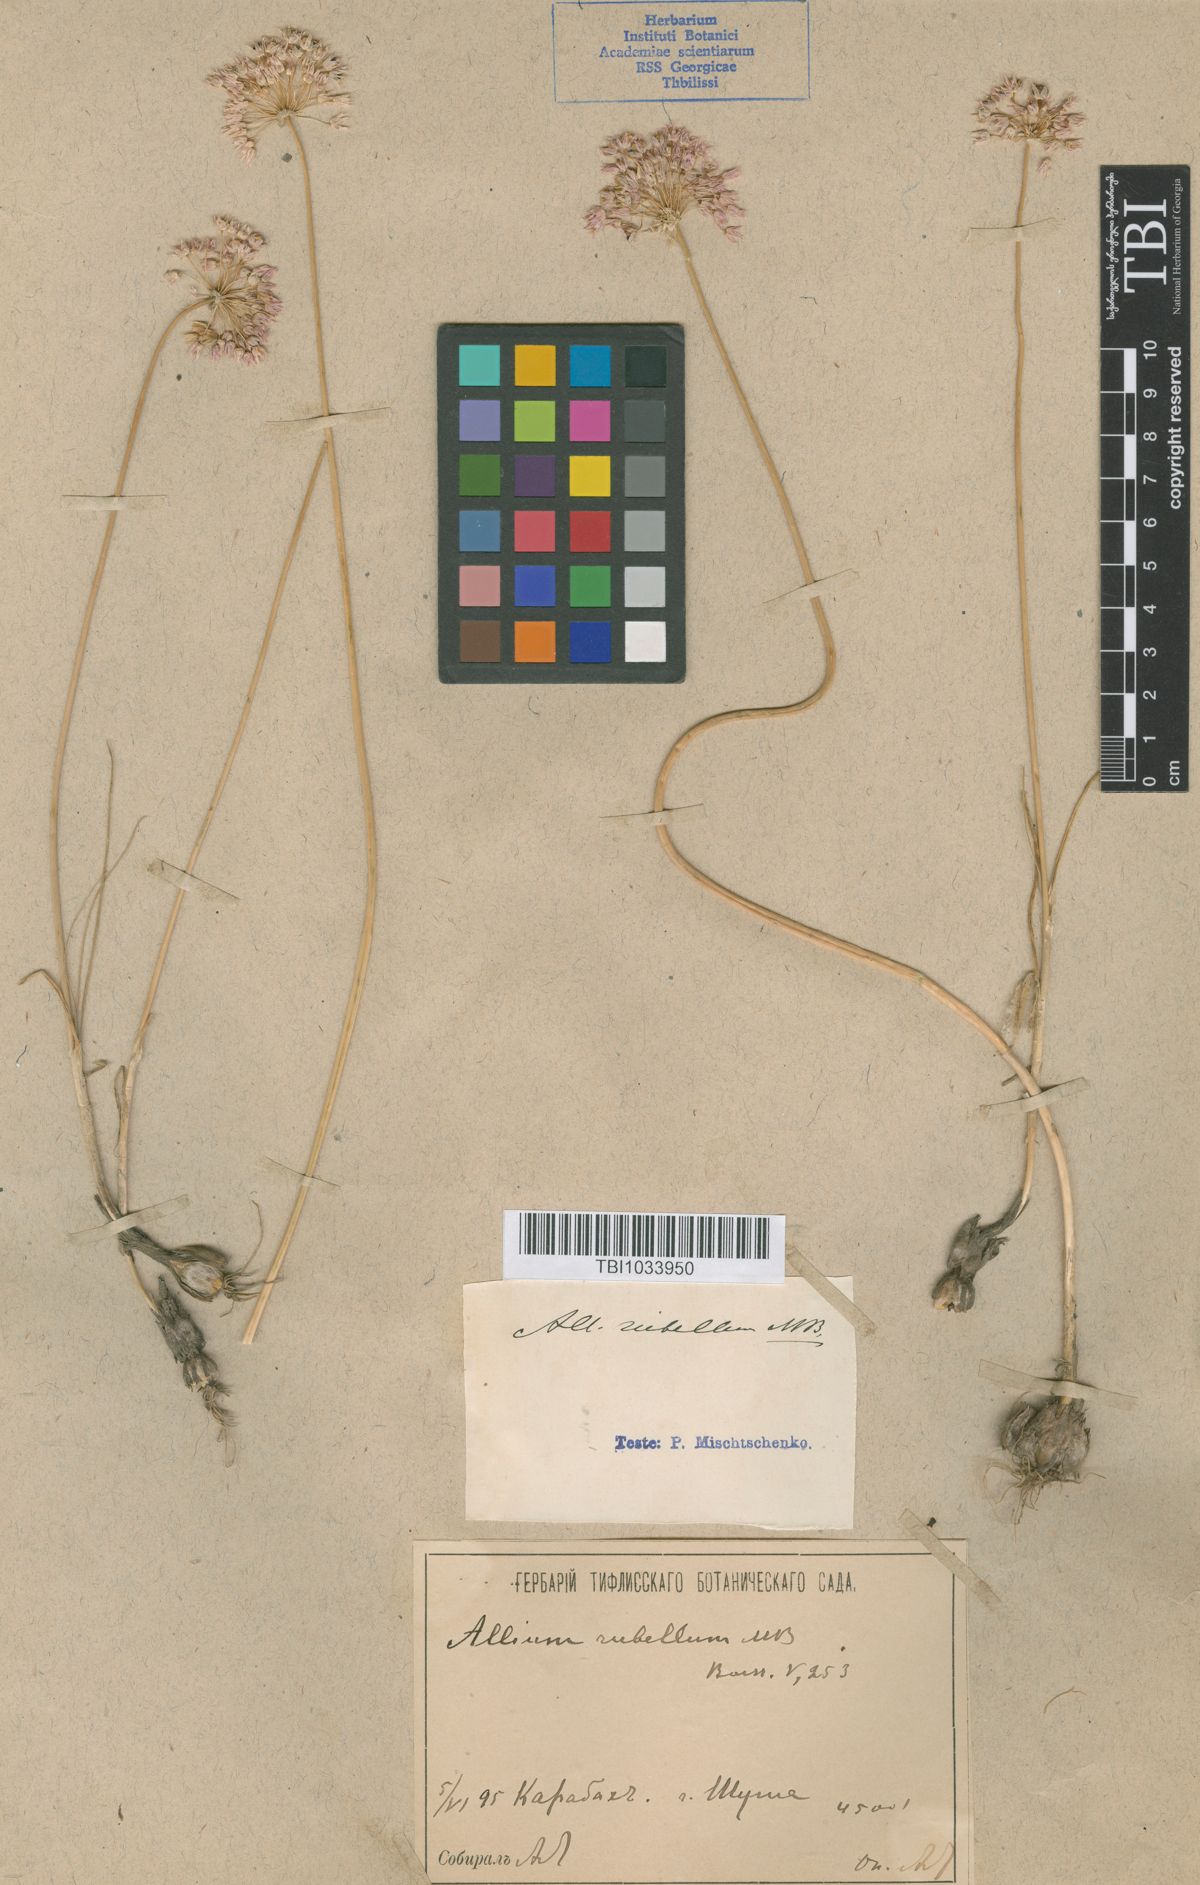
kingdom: Plantae
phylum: Tracheophyta
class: Liliopsida
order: Asparagales
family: Amaryllidaceae
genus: Allium
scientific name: Allium rubellum
